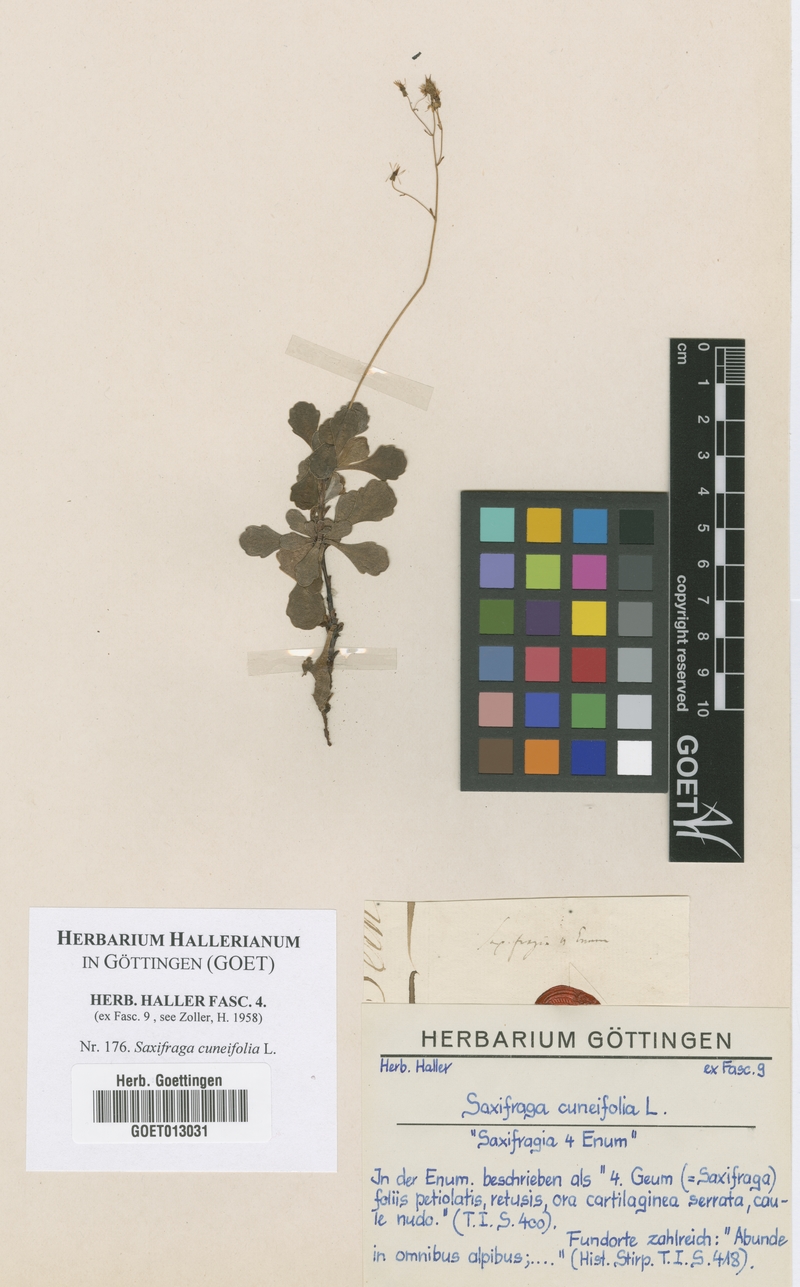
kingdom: Plantae
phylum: Tracheophyta
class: Magnoliopsida
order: Saxifragales
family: Saxifragaceae
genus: Saxifraga
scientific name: Saxifraga cuneifolia
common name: Lesser londonpride
